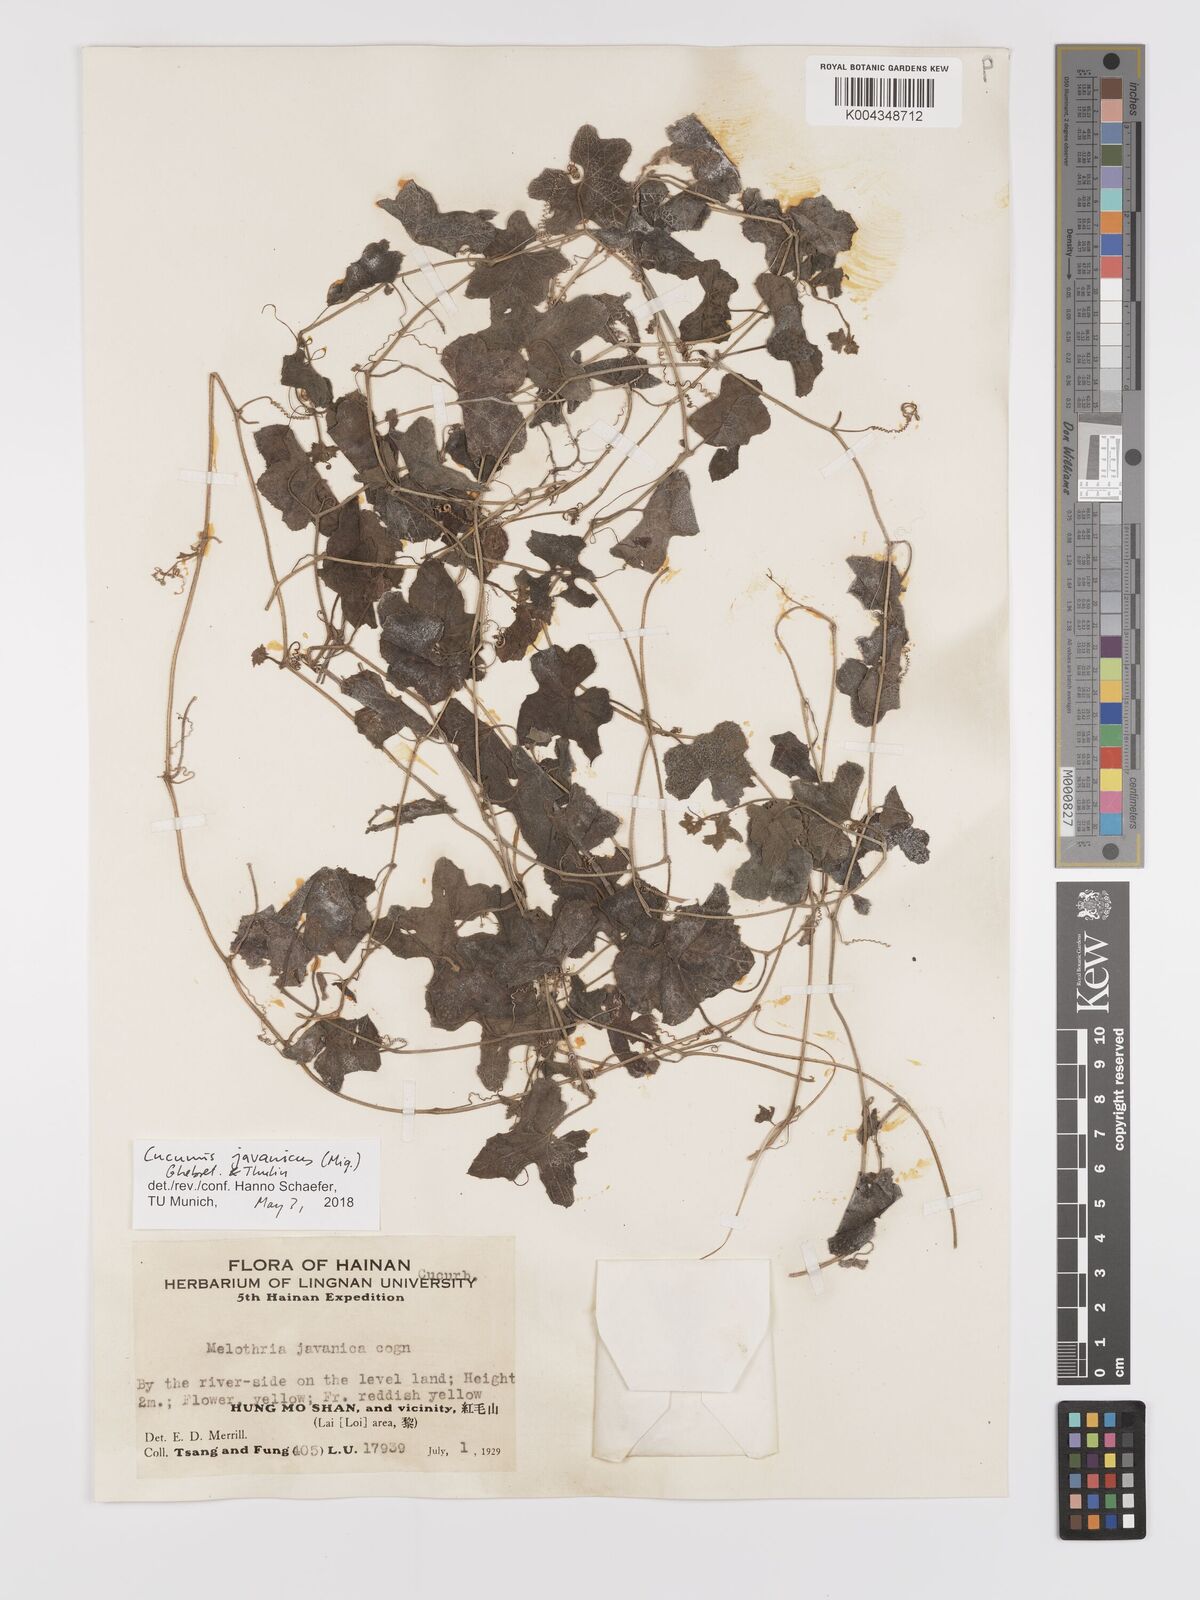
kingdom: Plantae
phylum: Tracheophyta
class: Magnoliopsida
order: Cucurbitales
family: Cucurbitaceae
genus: Cucumis
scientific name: Cucumis javanicus
